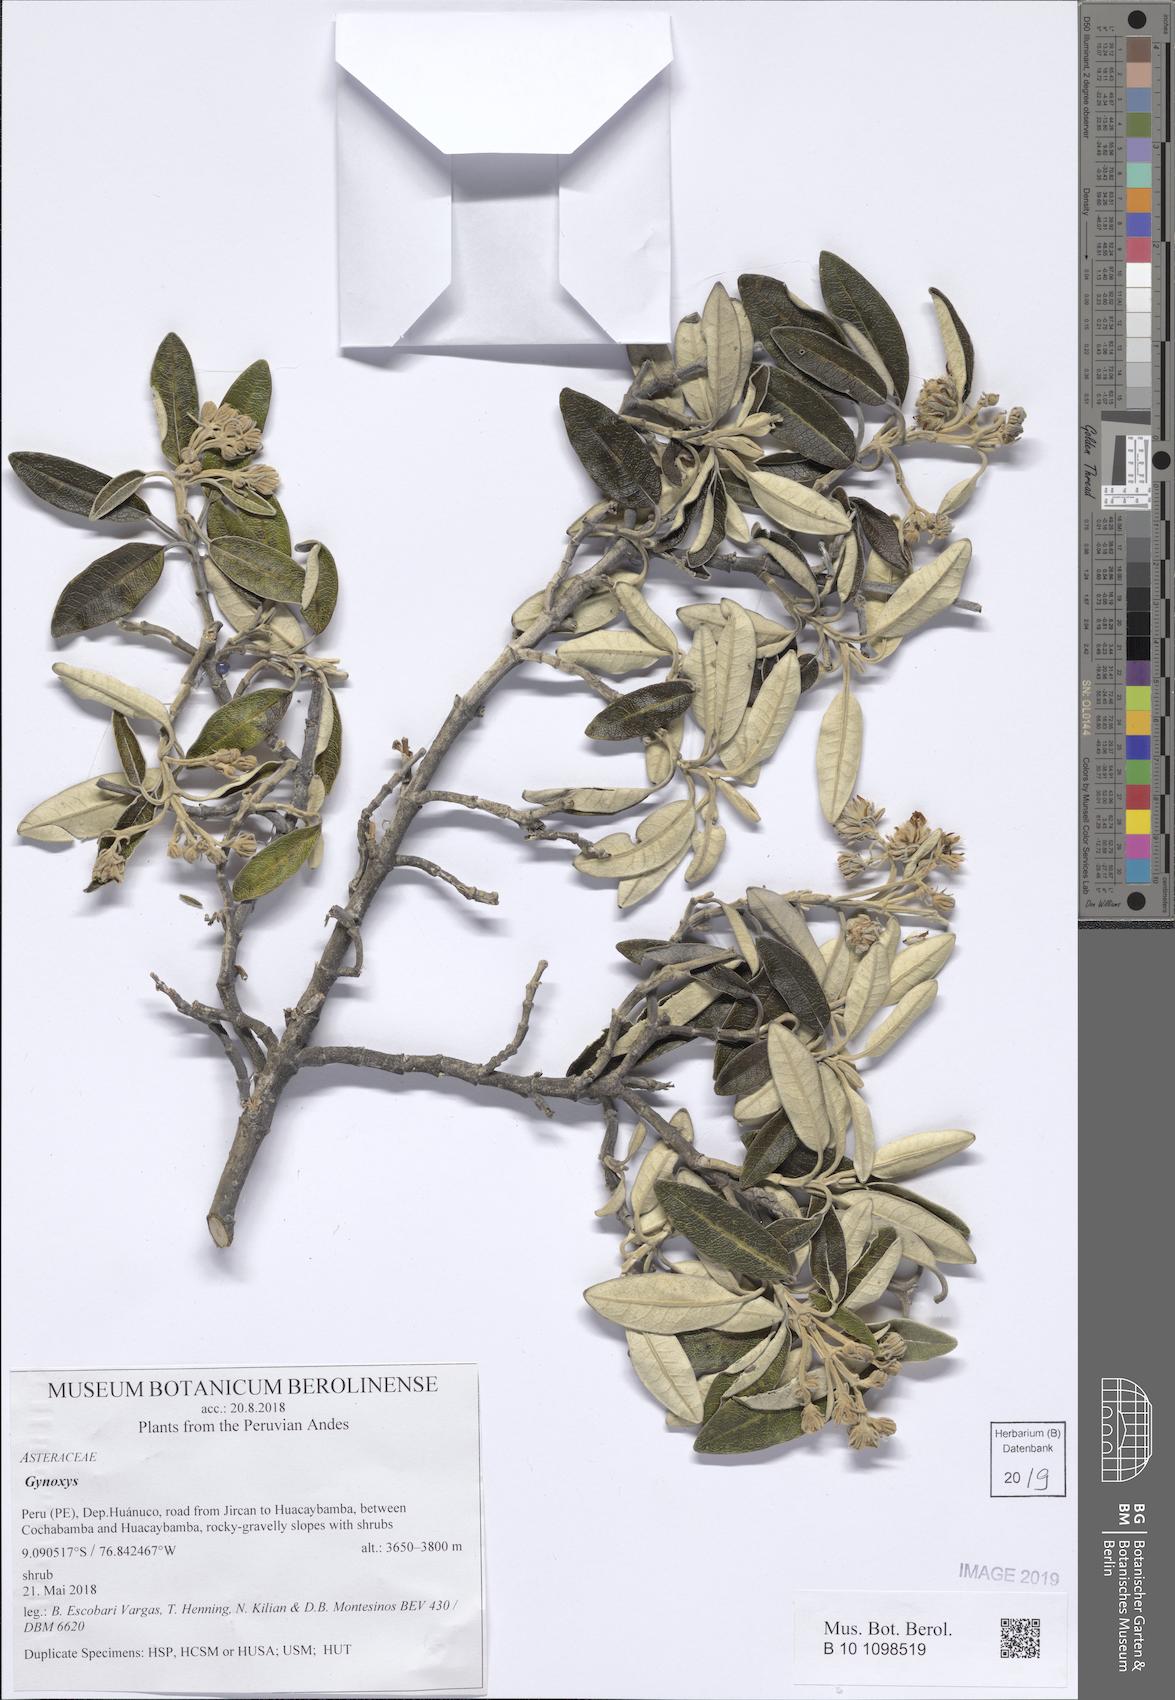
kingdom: Plantae
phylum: Tracheophyta
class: Magnoliopsida
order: Asterales
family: Asteraceae
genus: Gynoxys
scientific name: Gynoxys
